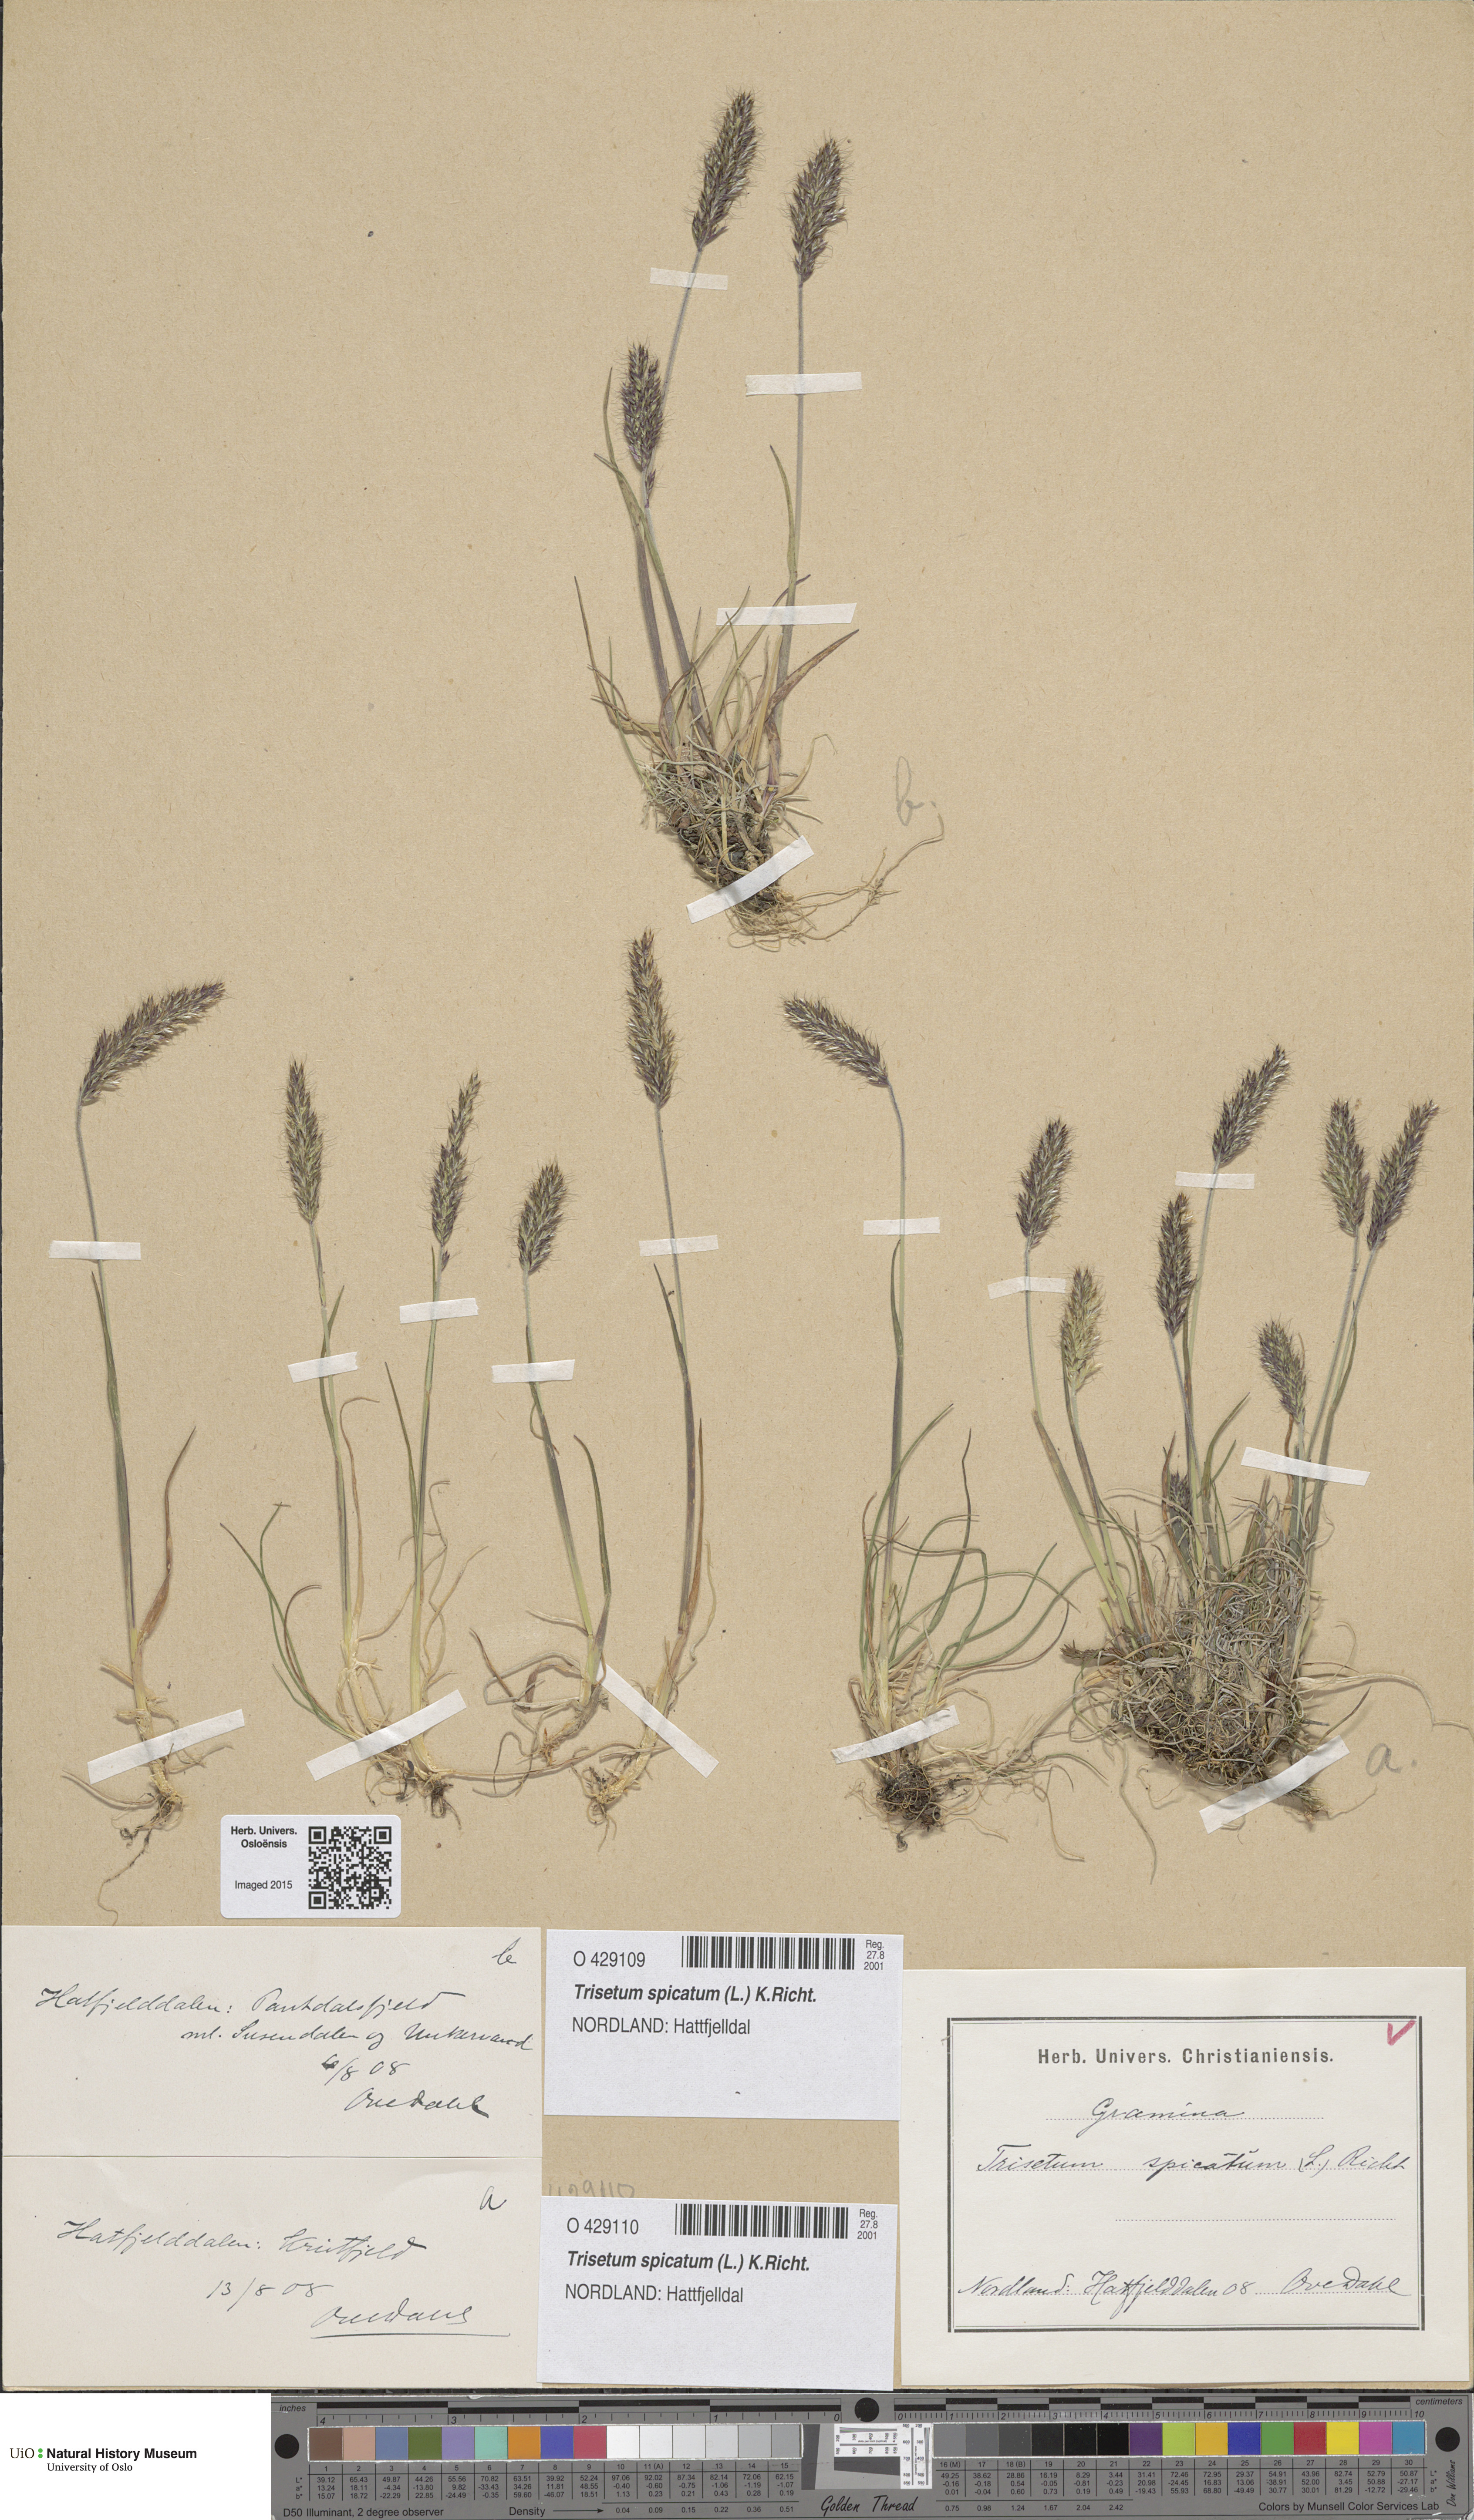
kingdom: Plantae
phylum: Tracheophyta
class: Liliopsida
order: Poales
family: Poaceae
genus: Koeleria
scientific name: Koeleria spicata
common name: Mountain trisetum
